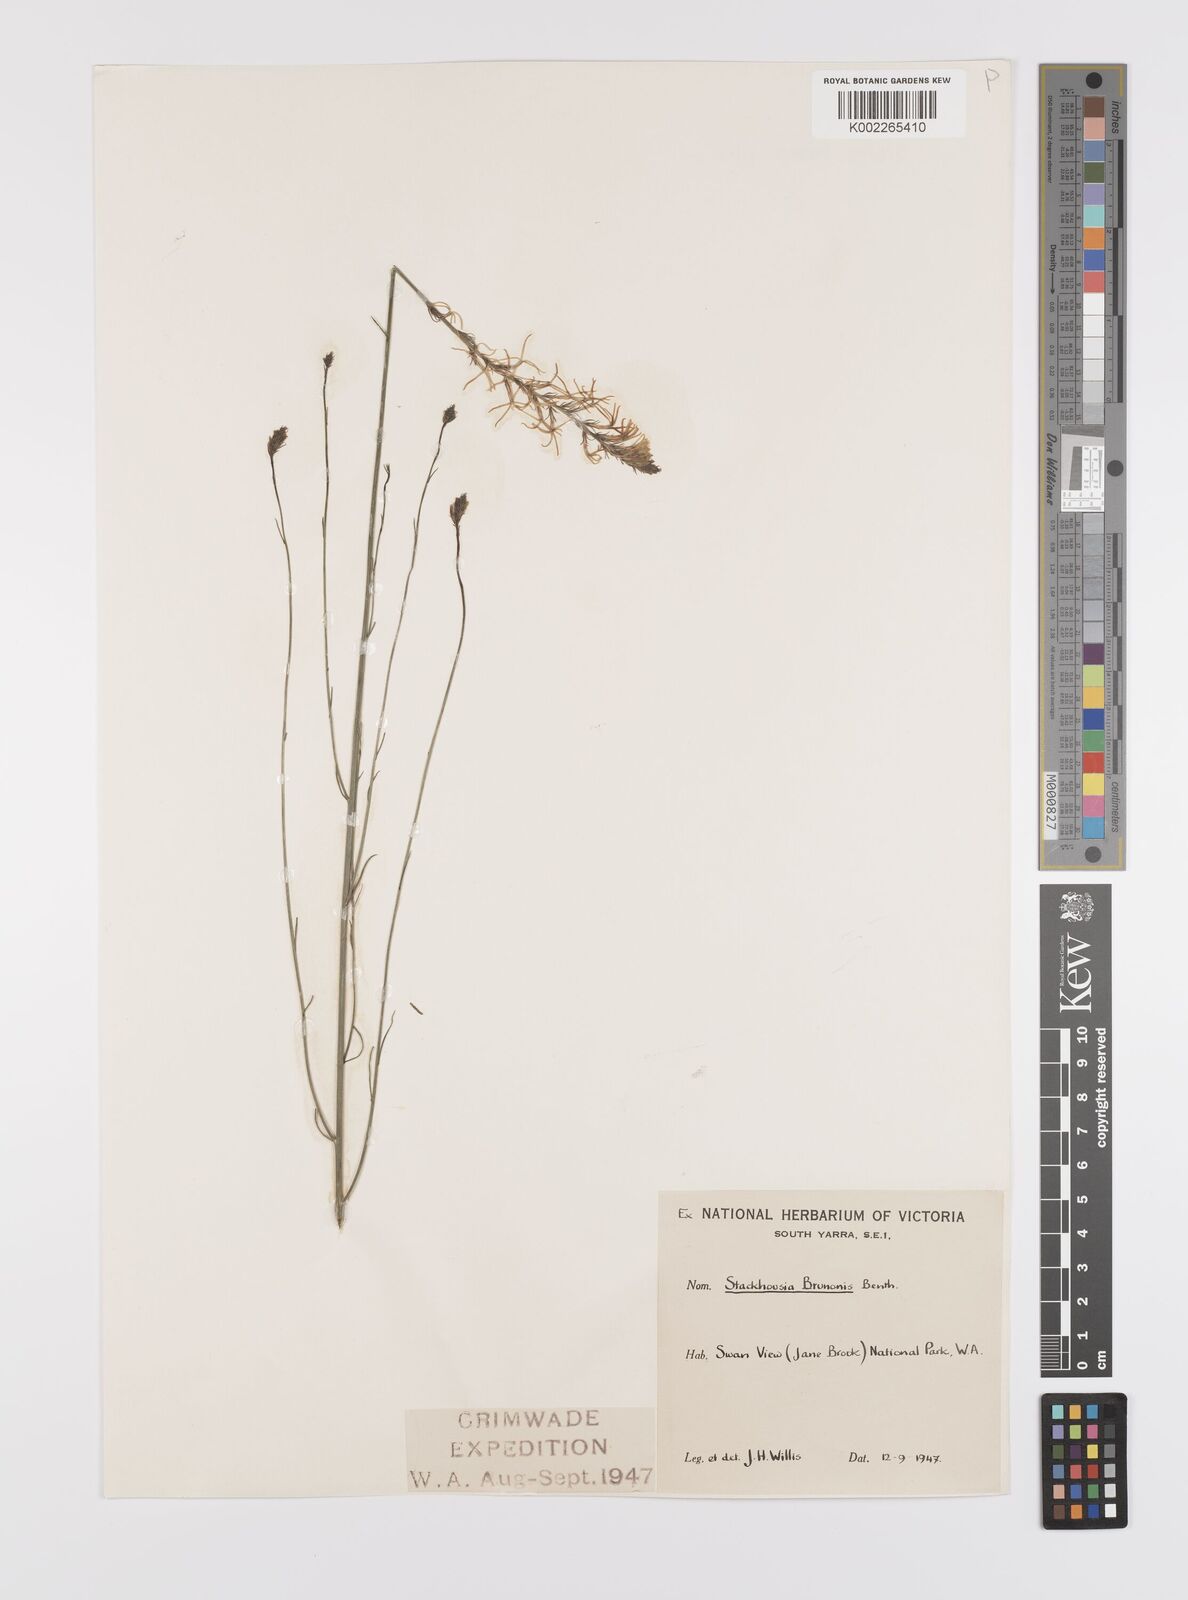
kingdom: Plantae
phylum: Tracheophyta
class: Magnoliopsida
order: Celastrales
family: Celastraceae
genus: Tripterococcus
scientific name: Tripterococcus brunonis
